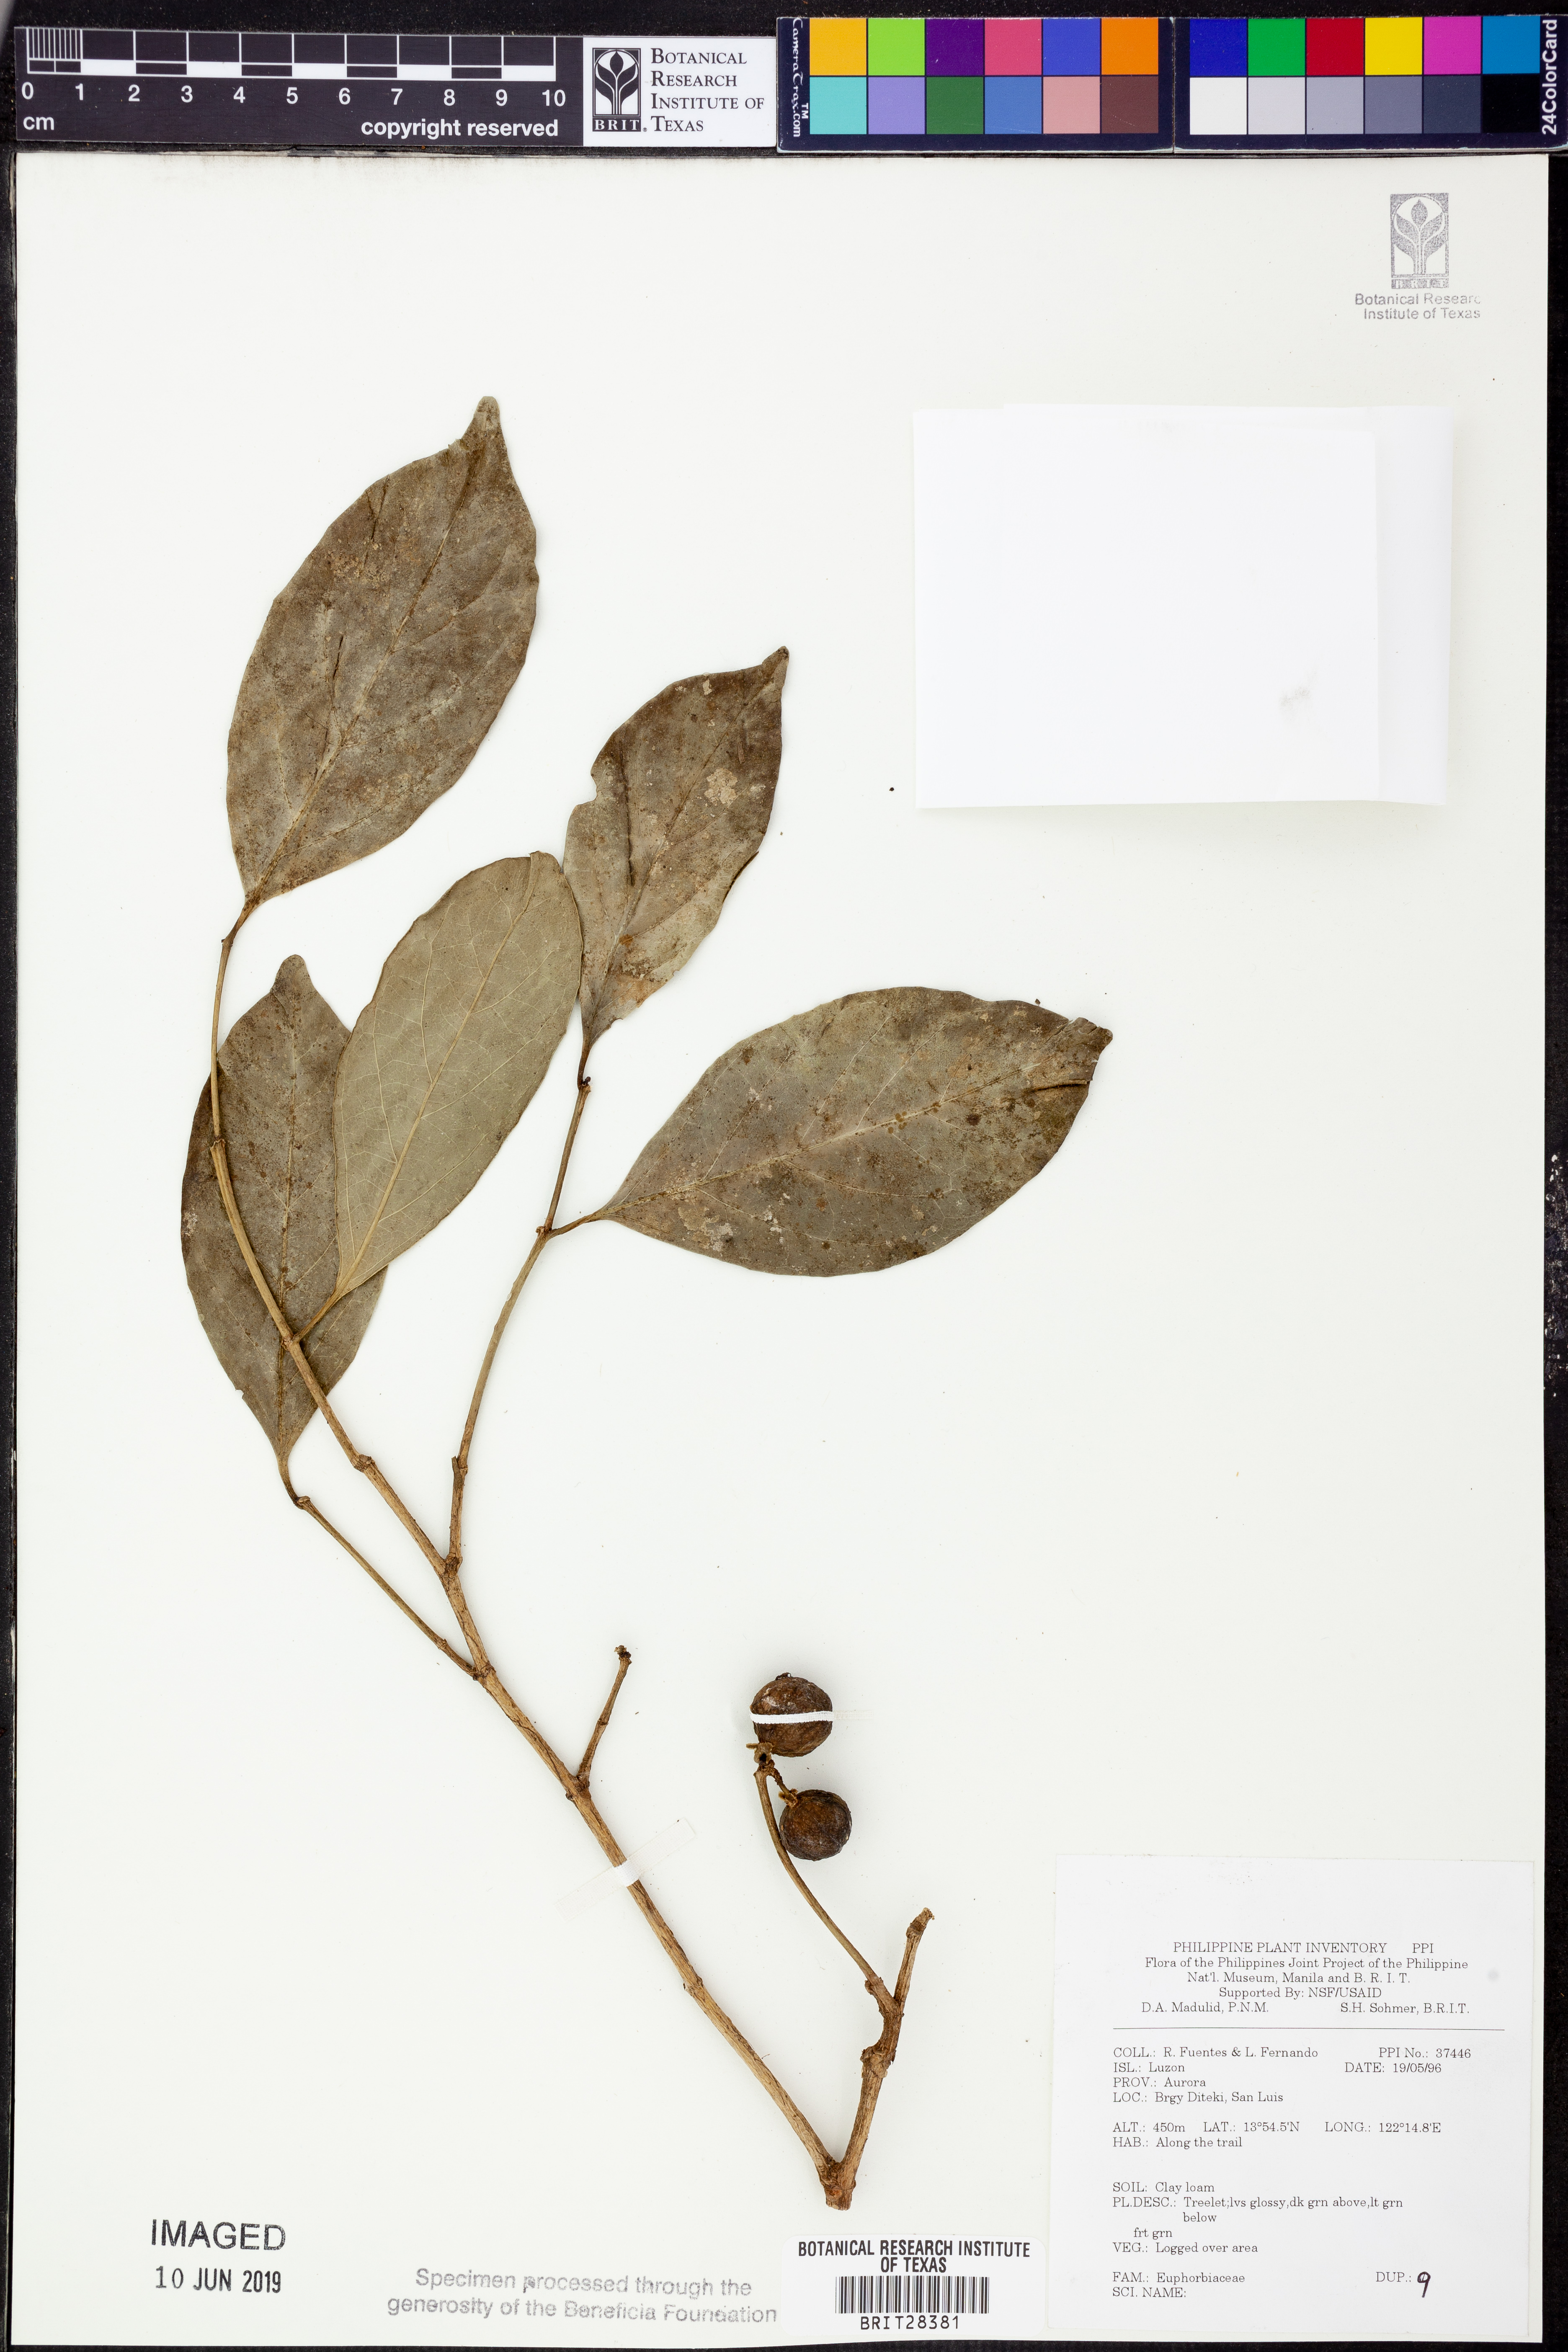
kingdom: Plantae
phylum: Tracheophyta
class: Magnoliopsida
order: Malpighiales
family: Euphorbiaceae
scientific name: Euphorbiaceae
